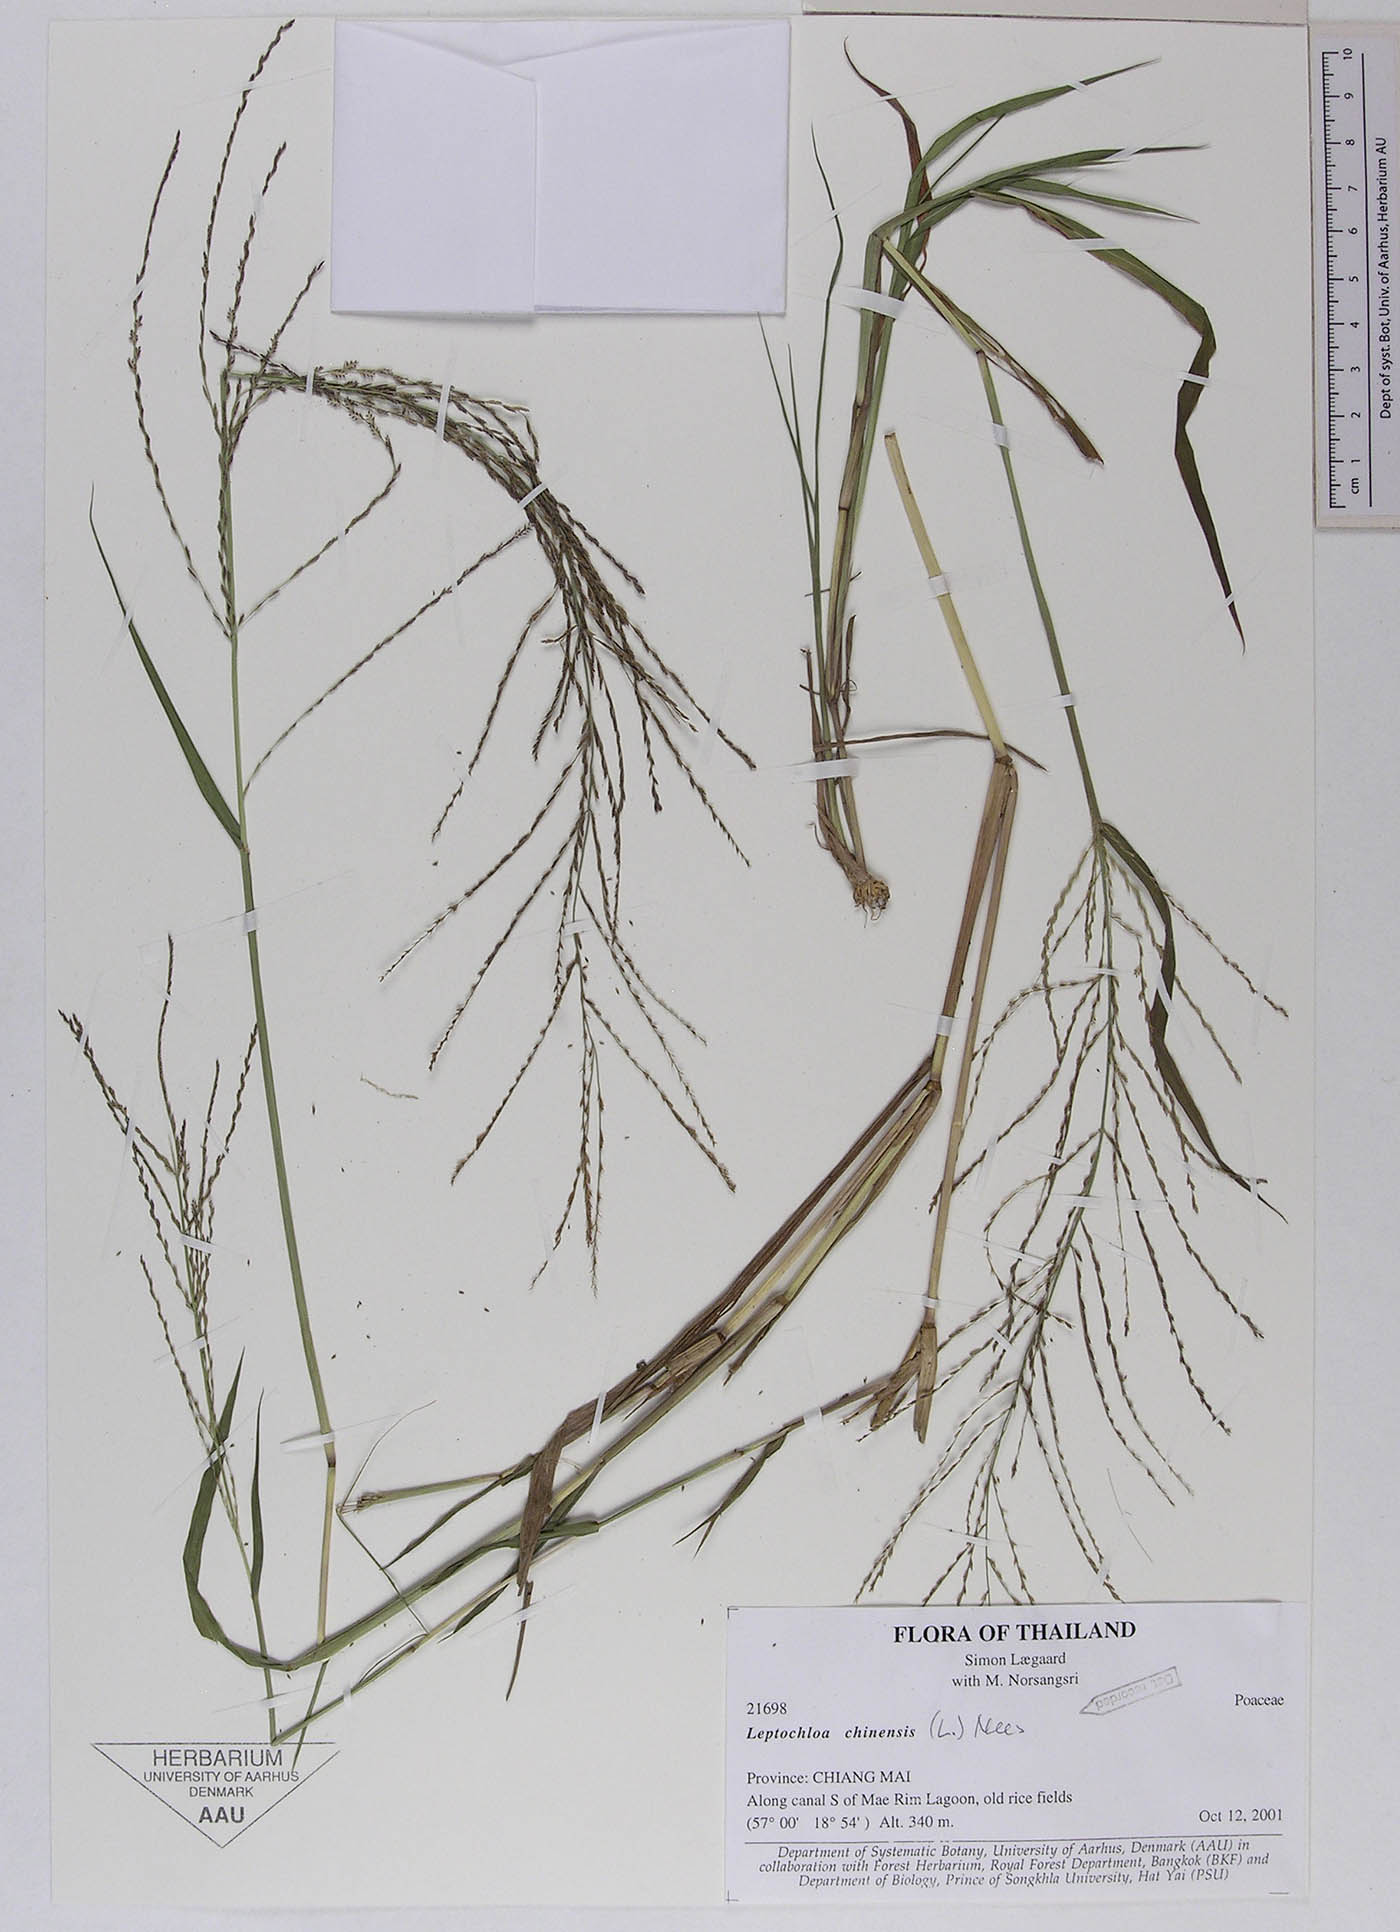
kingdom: Plantae
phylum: Tracheophyta
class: Liliopsida
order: Poales
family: Poaceae
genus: Leptochloa
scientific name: Leptochloa chinensis
